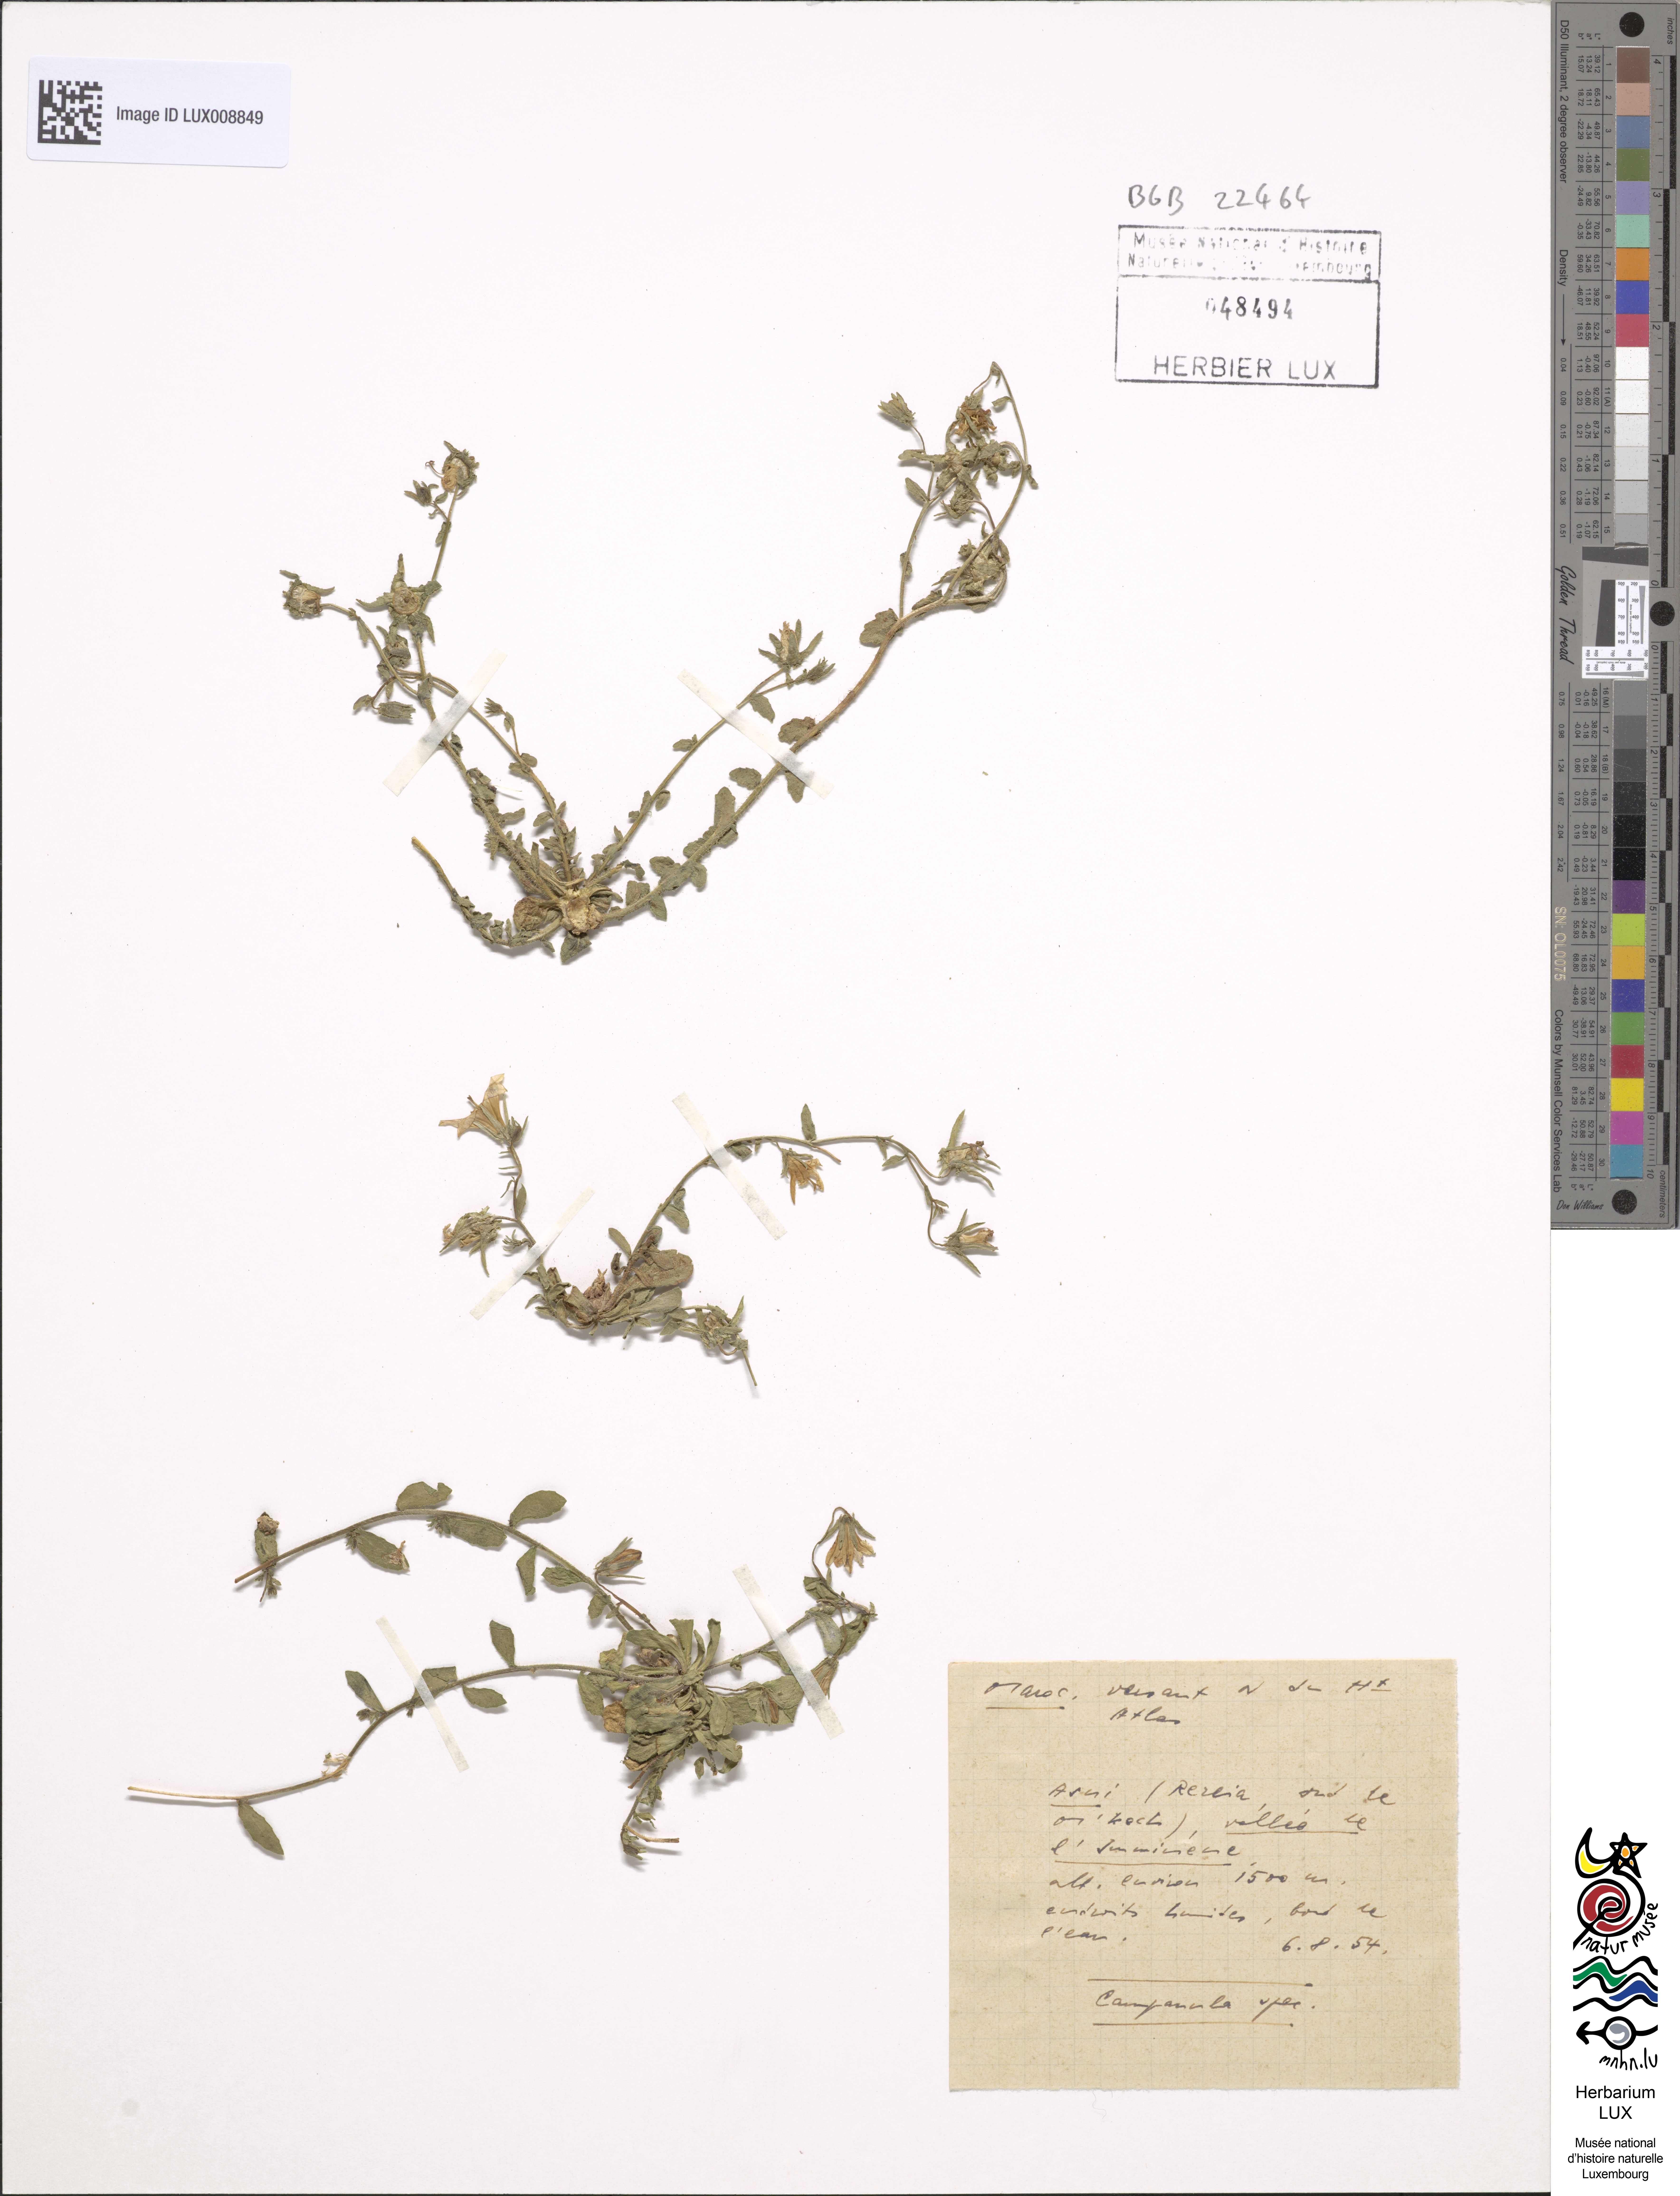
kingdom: Plantae
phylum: Tracheophyta
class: Magnoliopsida
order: Asterales
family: Campanulaceae
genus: Campanula
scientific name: Campanula
